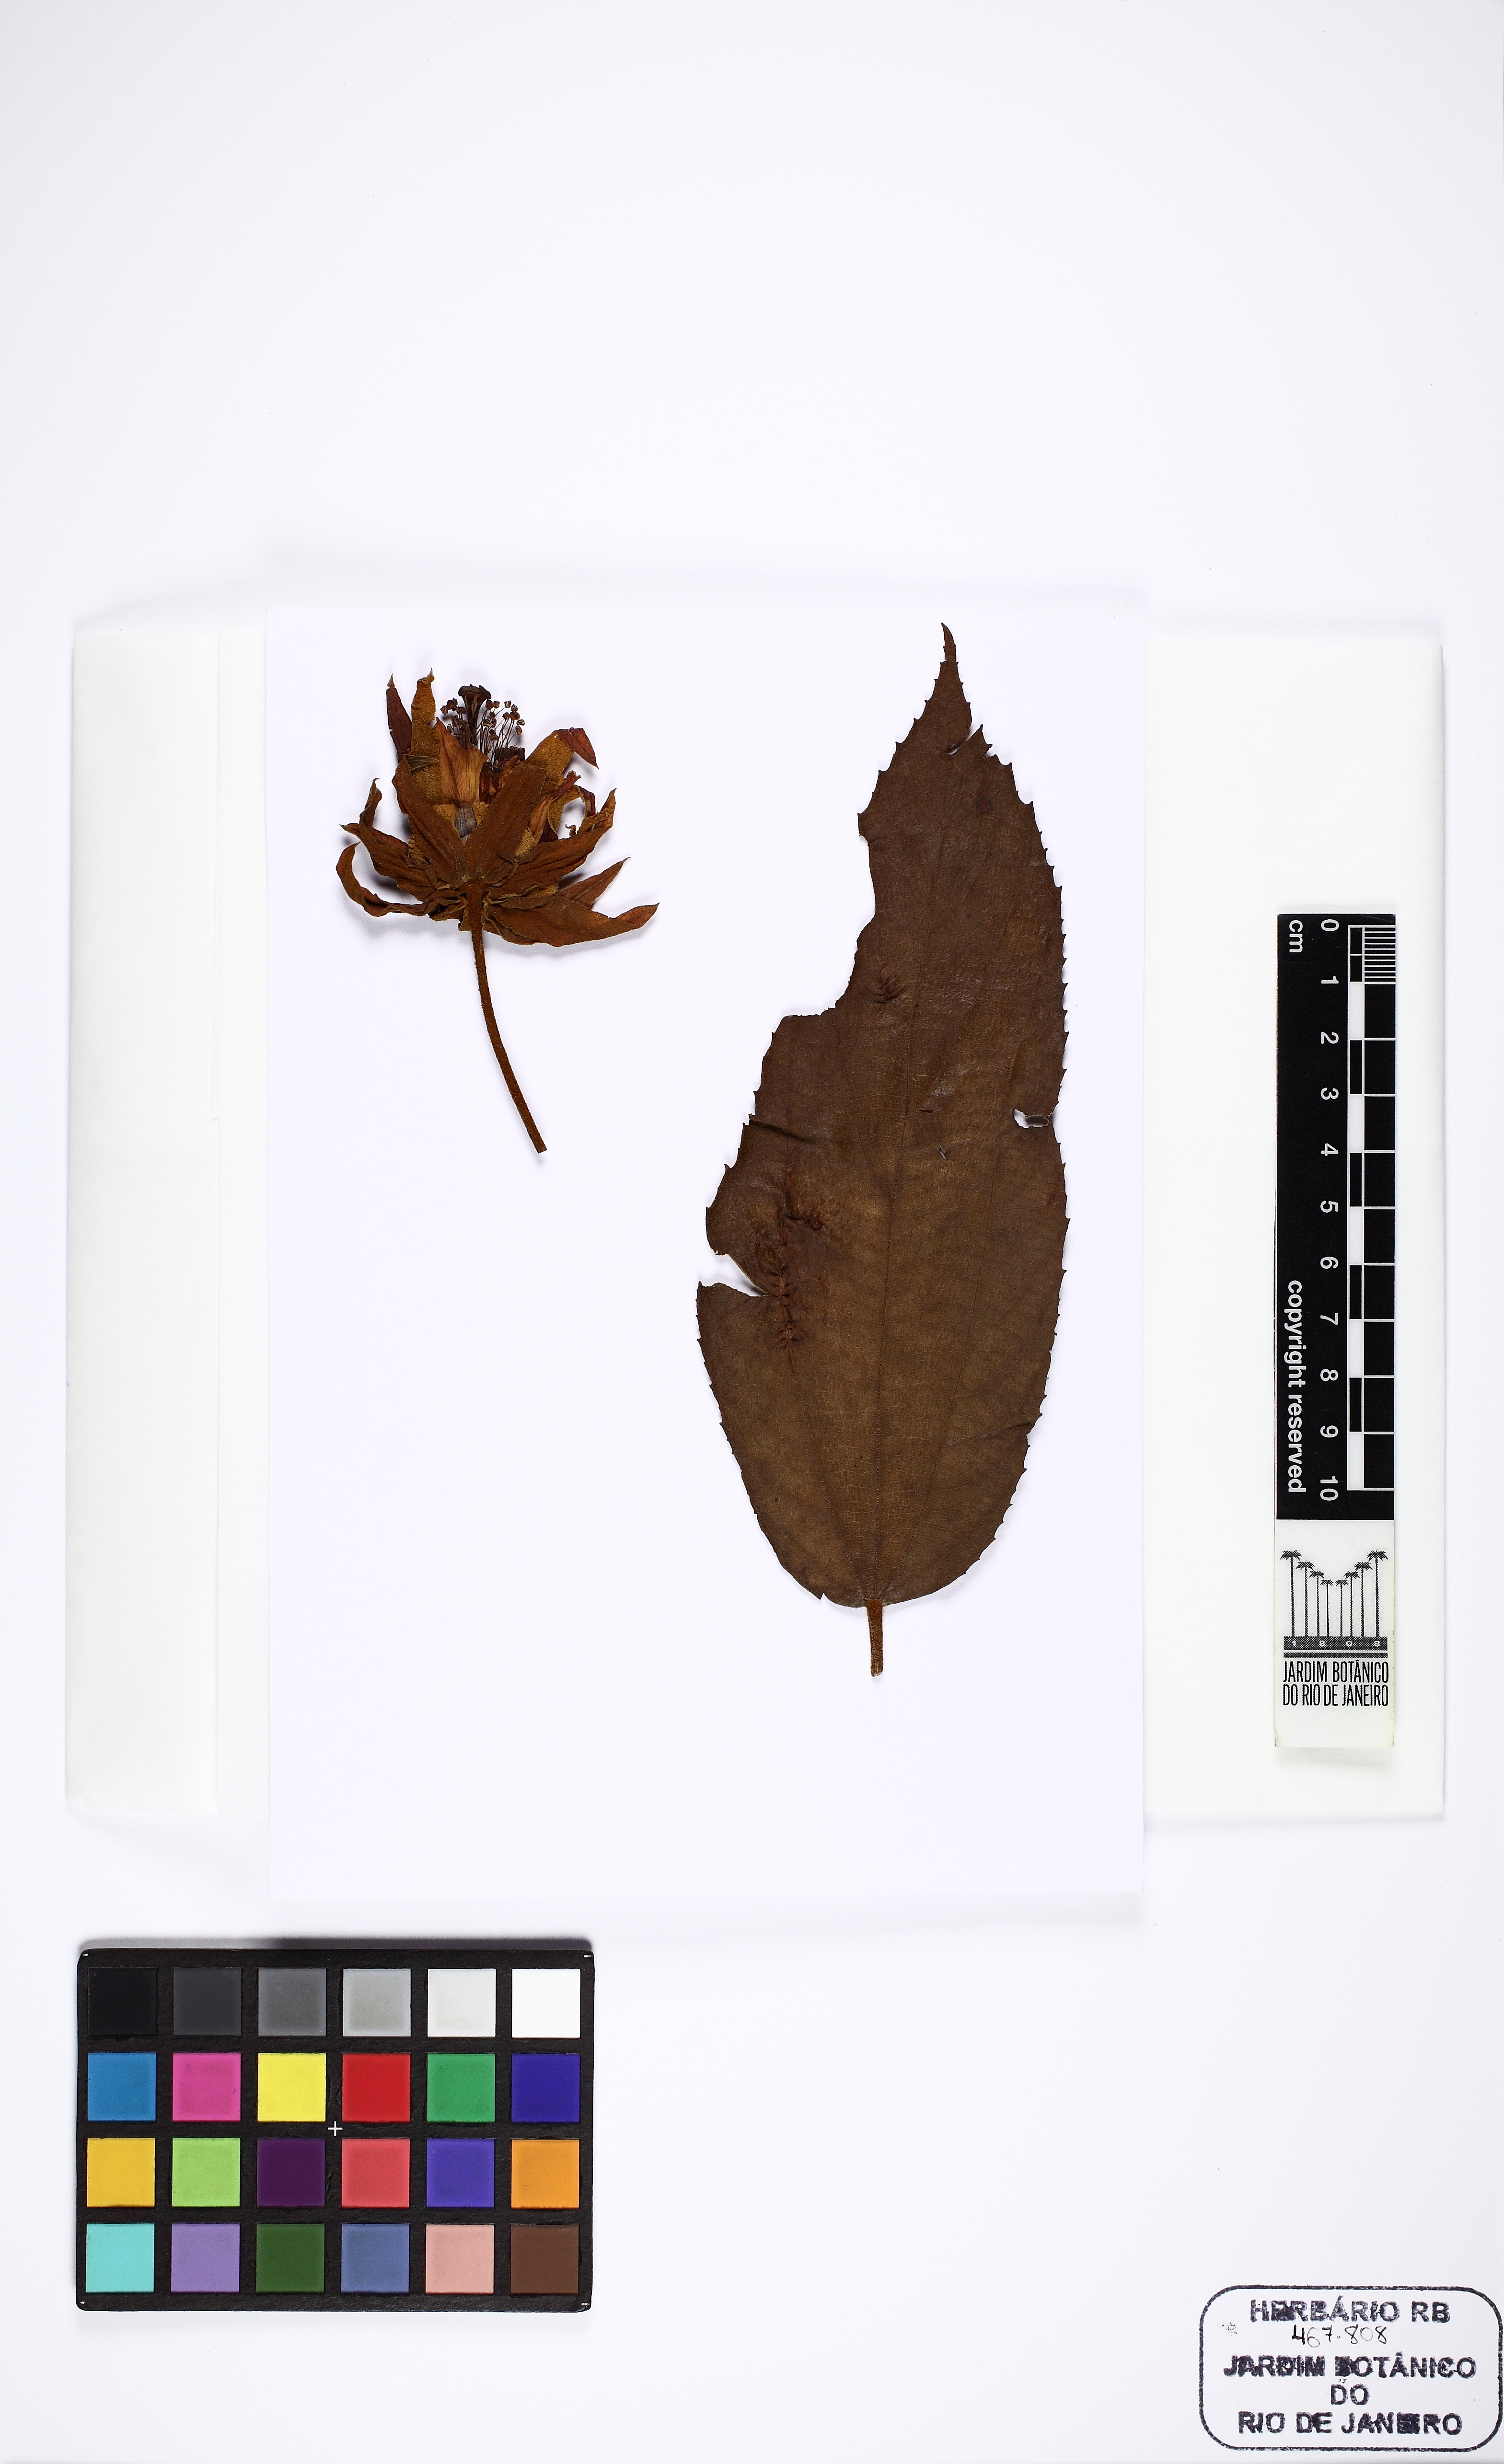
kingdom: Plantae
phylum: Tracheophyta
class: Magnoliopsida
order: Malvales
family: Malvaceae
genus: Luehea
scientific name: Luehea grandiflora
